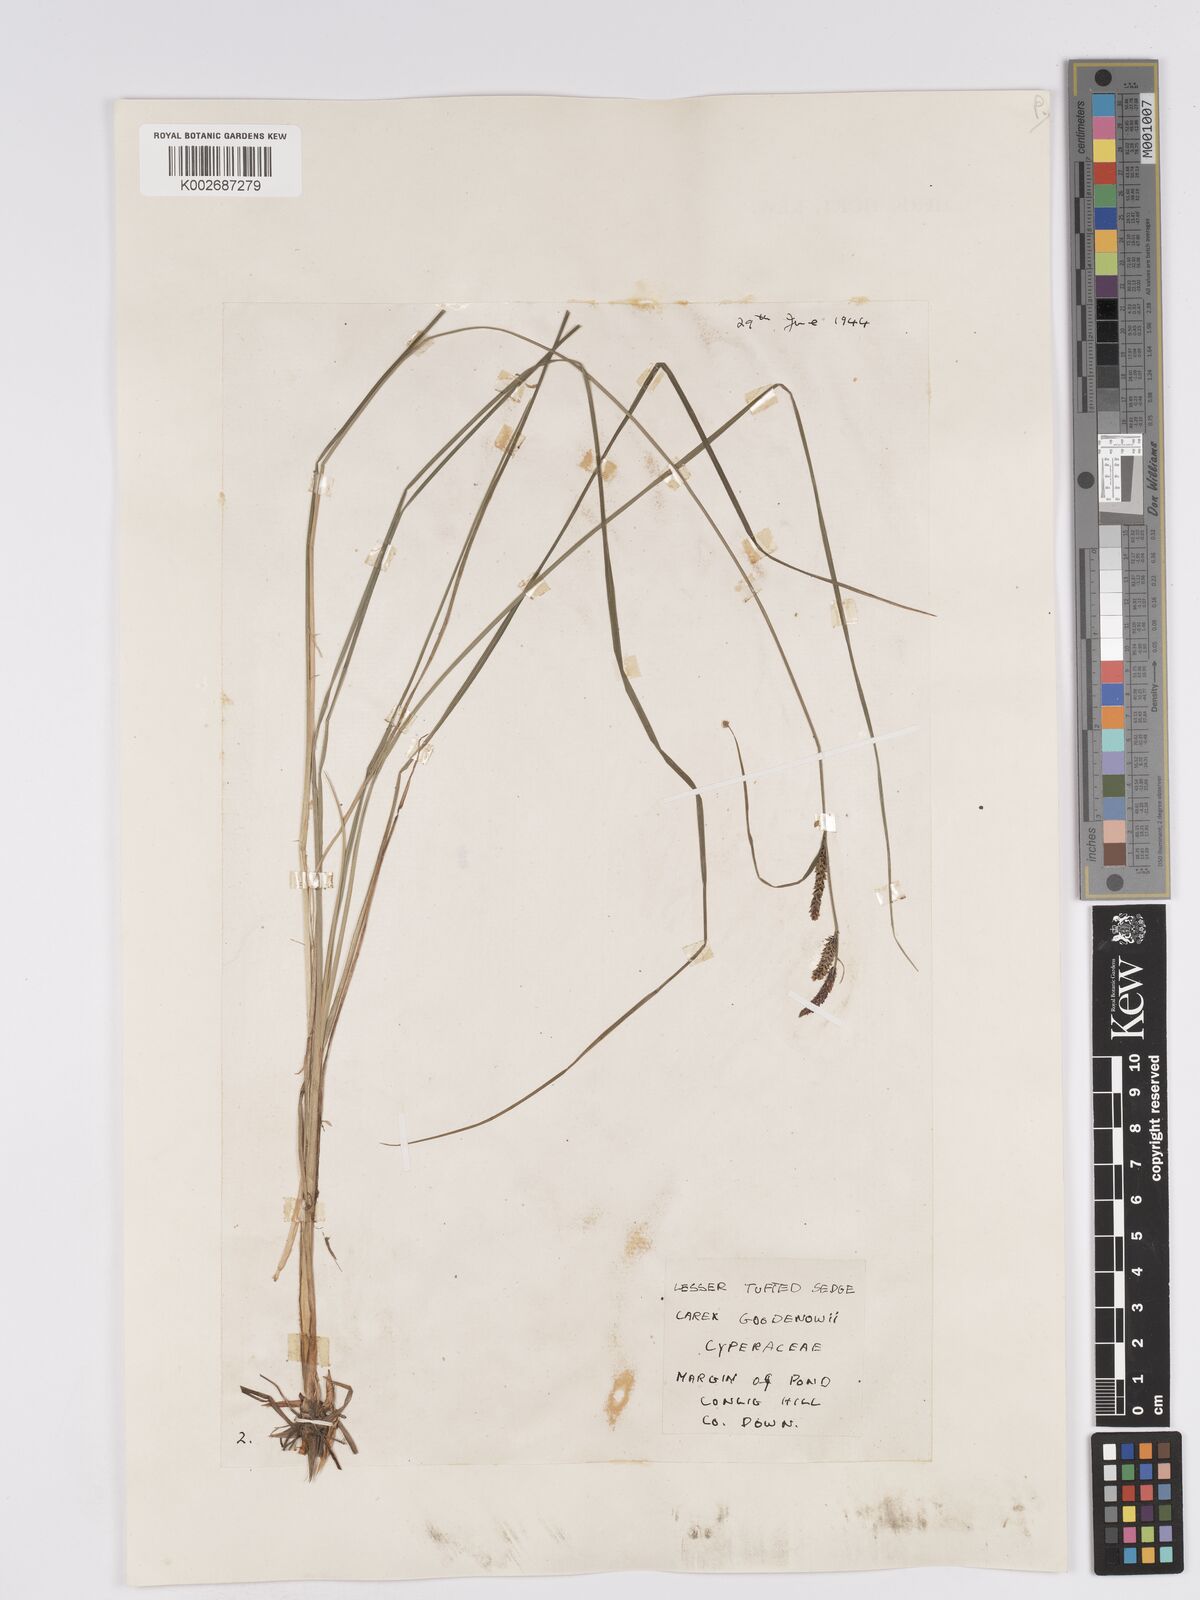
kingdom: Plantae
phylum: Tracheophyta
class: Liliopsida
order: Poales
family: Cyperaceae
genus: Carex
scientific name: Carex nigra
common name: Common sedge
